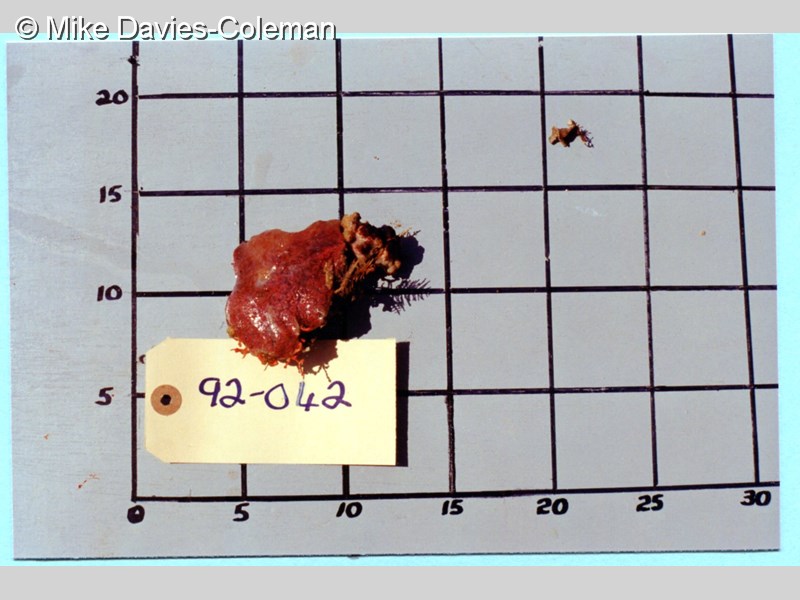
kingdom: Animalia
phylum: Chordata
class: Ascidiacea
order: Aplousobranchia
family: Polyclinidae
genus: Aplidium
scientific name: Aplidium flavolineatum
